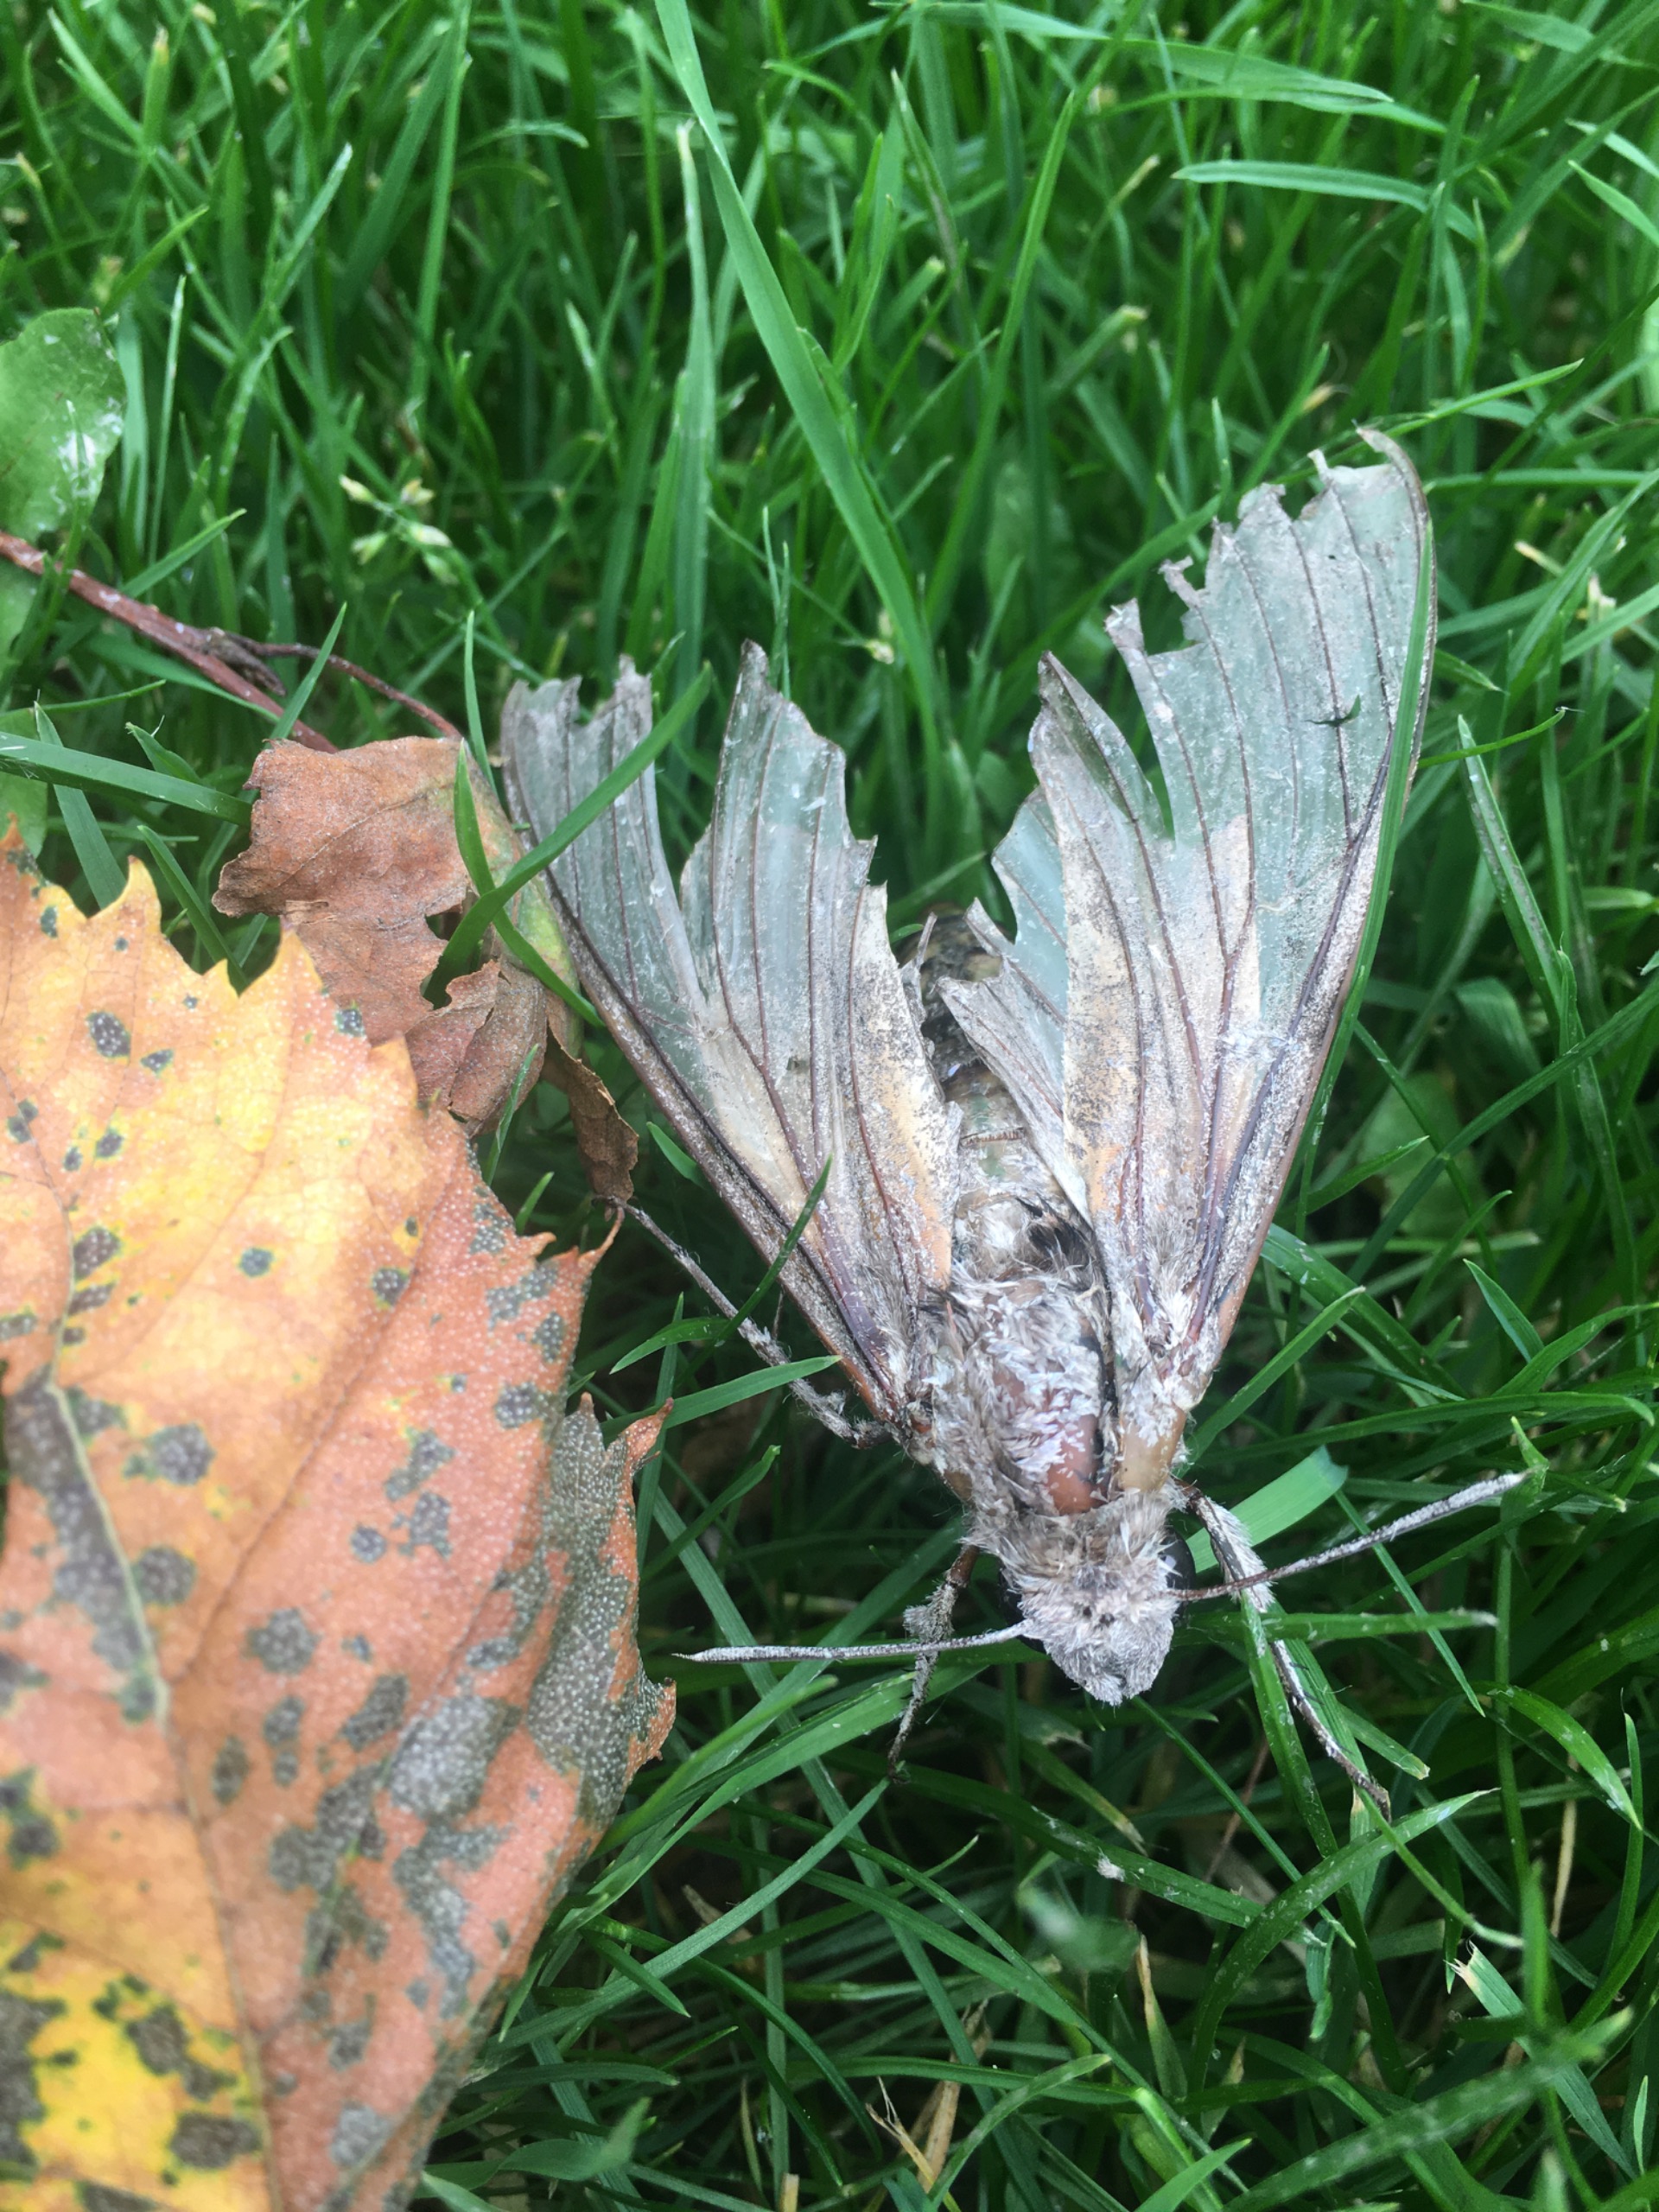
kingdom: Animalia
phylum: Arthropoda
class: Insecta
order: Lepidoptera
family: Sphingidae
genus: Agrius
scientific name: Agrius convolvuli
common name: Snerlesværmer
